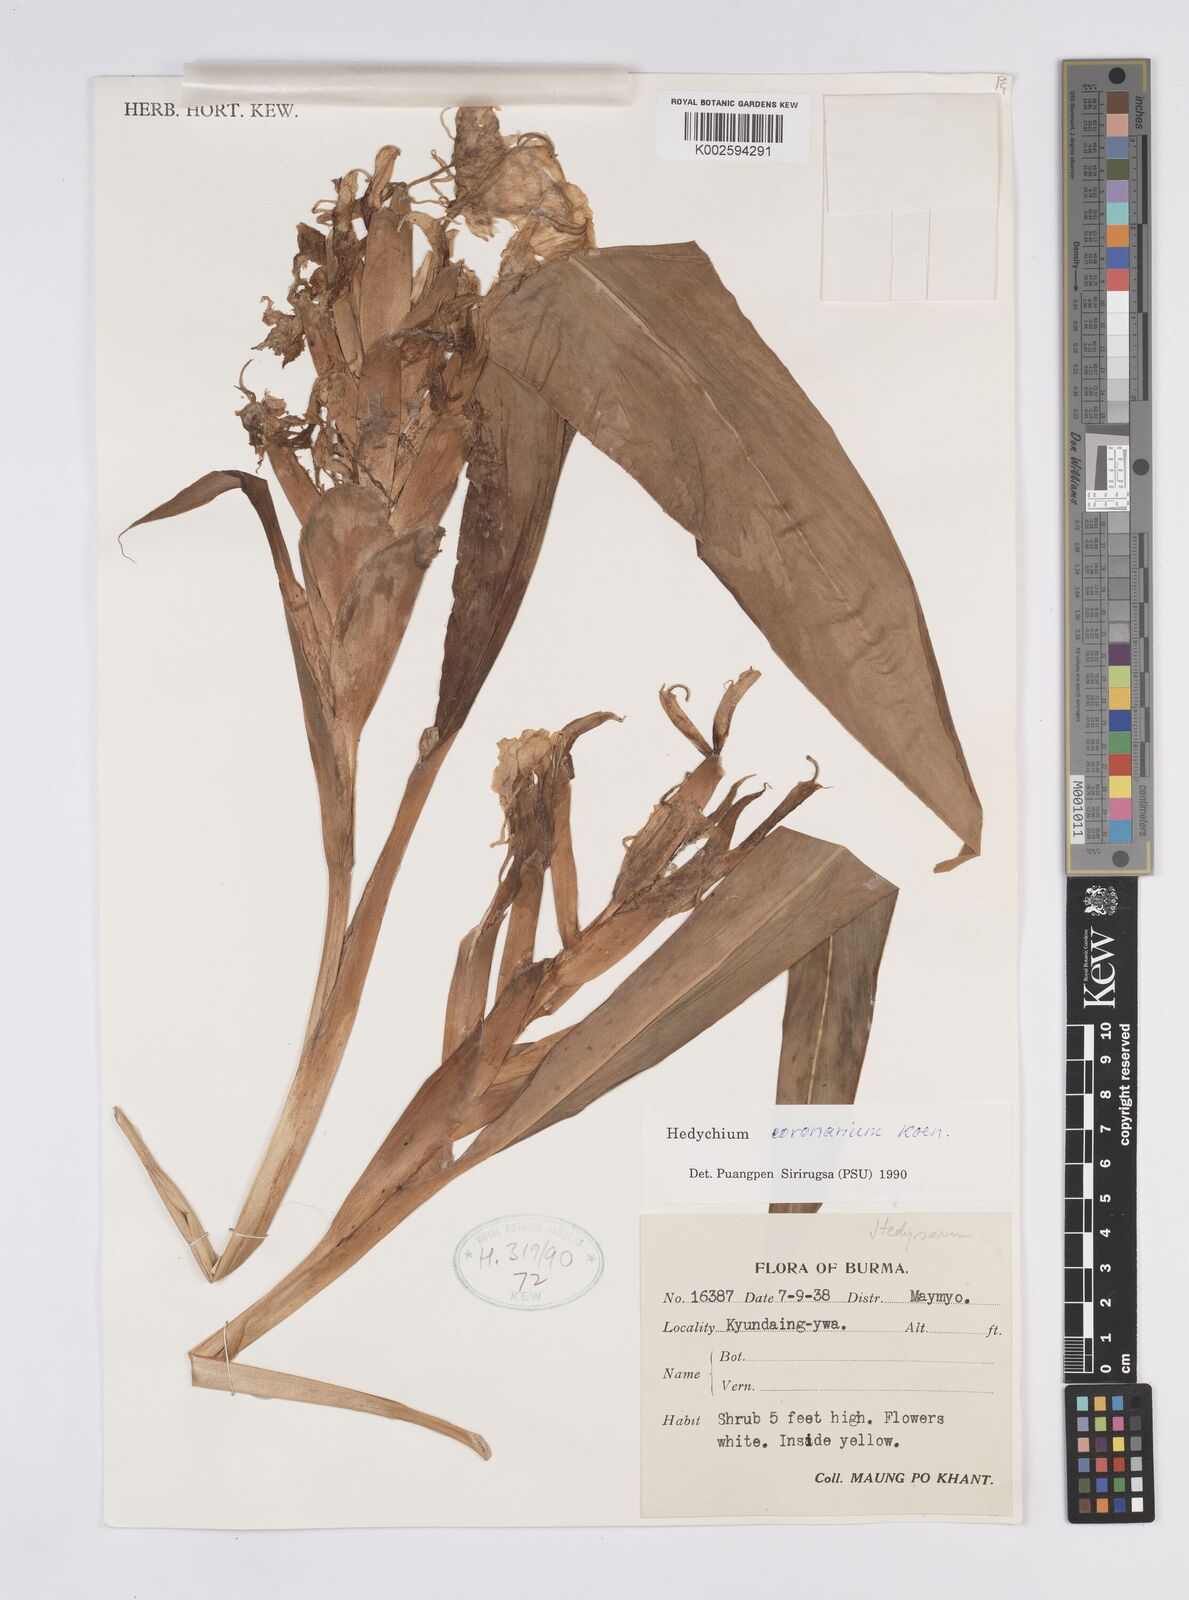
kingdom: Plantae
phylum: Tracheophyta
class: Liliopsida
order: Zingiberales
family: Zingiberaceae
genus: Hedychium
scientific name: Hedychium coronarium
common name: White garland-lily
